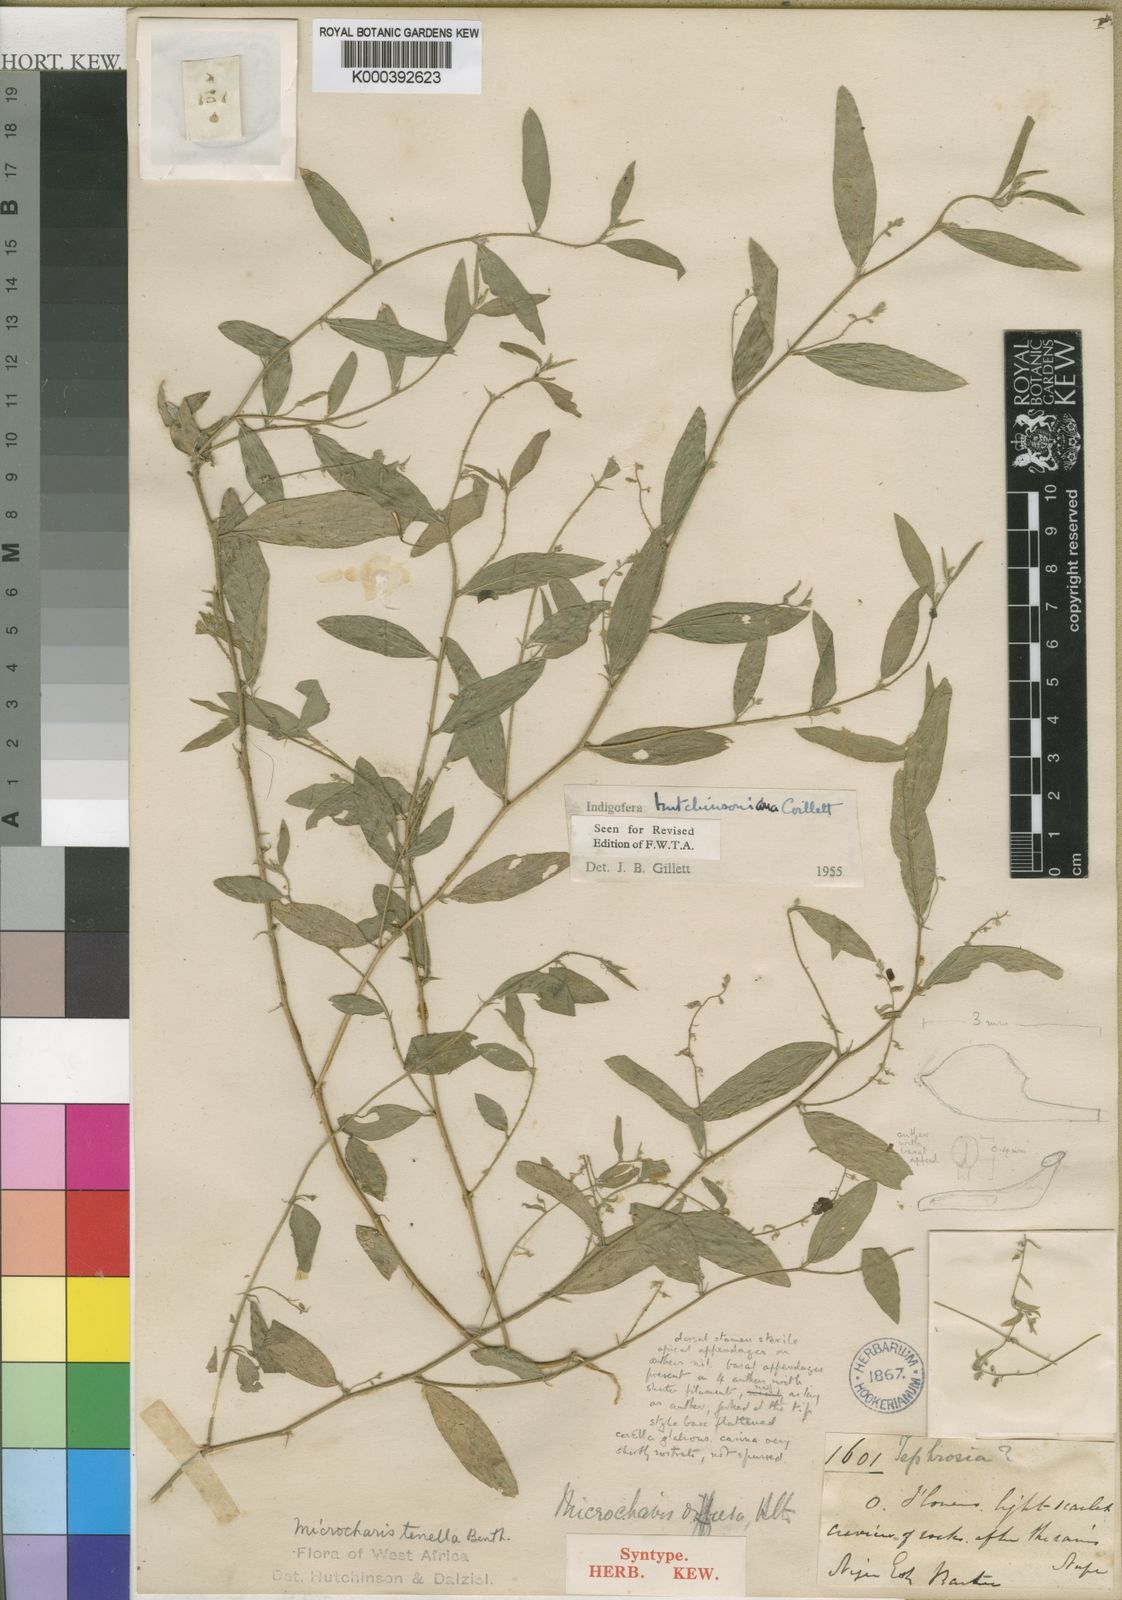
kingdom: Plantae
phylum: Tracheophyta
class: Magnoliopsida
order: Fabales
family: Fabaceae
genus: Microcharis
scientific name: Microcharis tenella
